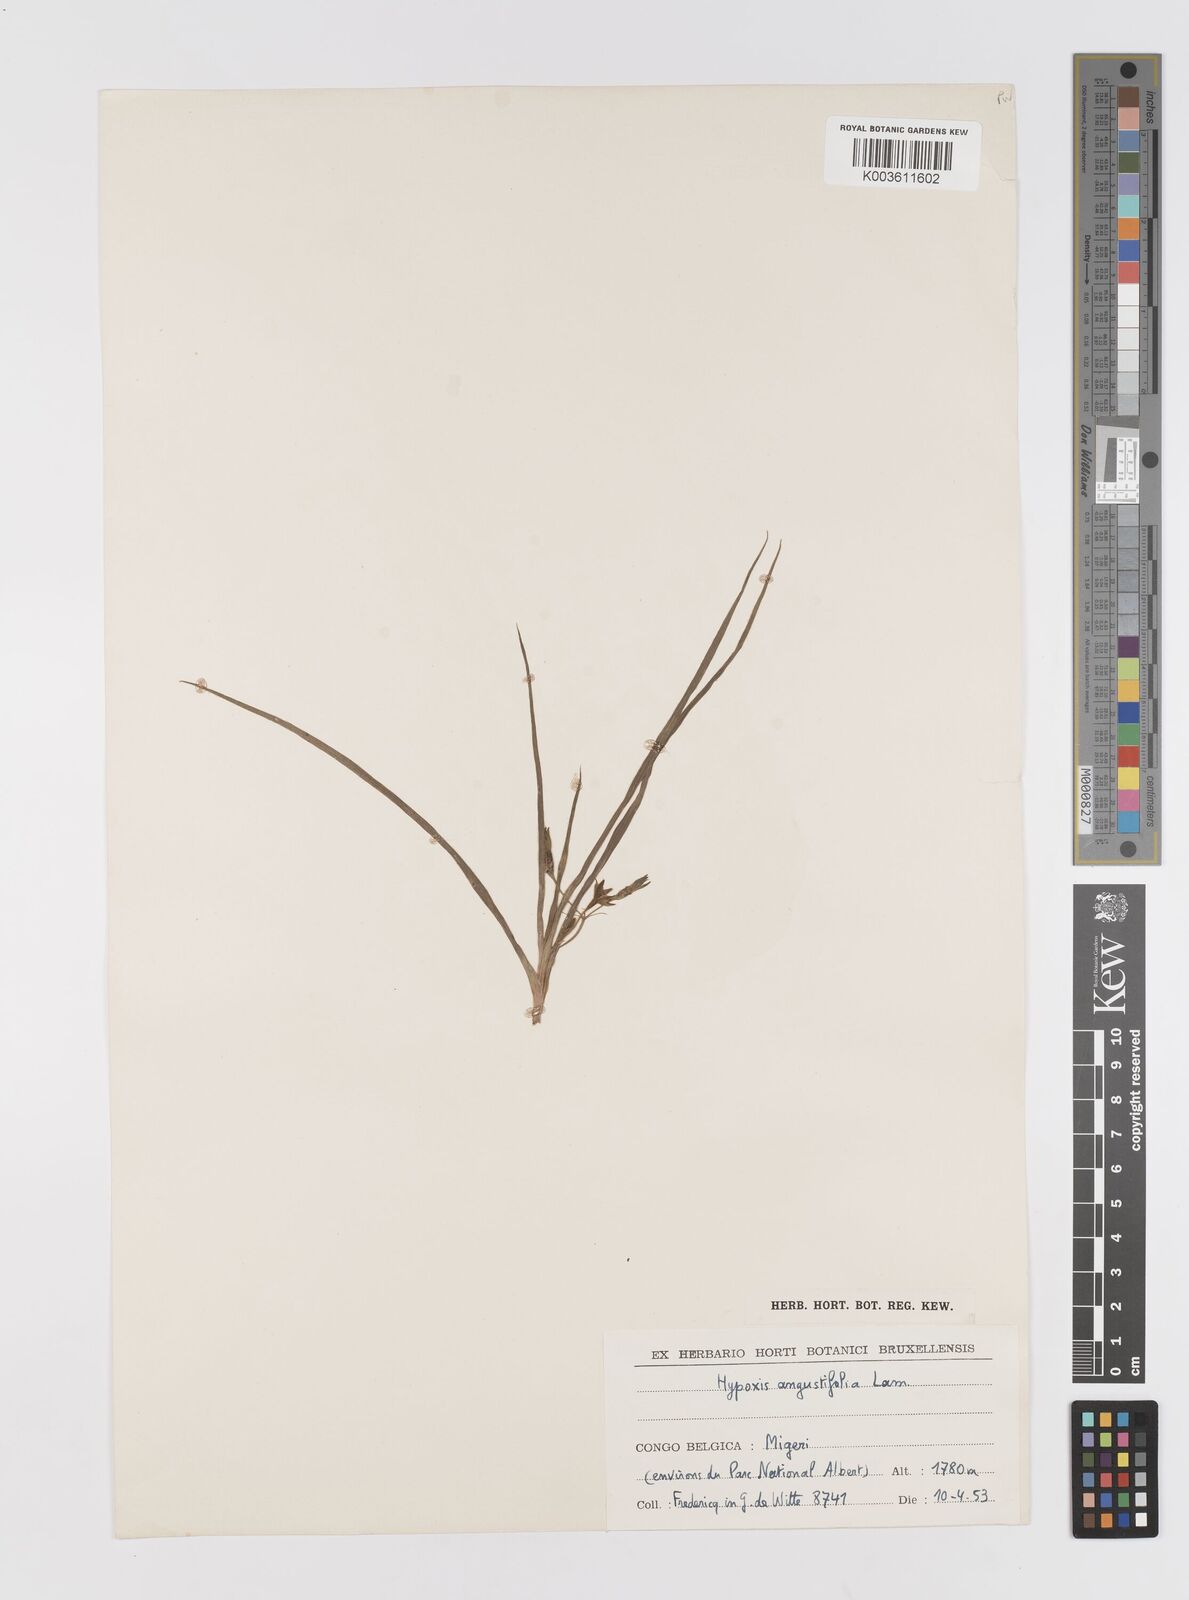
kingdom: Plantae
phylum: Tracheophyta
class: Liliopsida
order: Asparagales
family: Hypoxidaceae
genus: Hypoxis
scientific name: Hypoxis angustifolia
